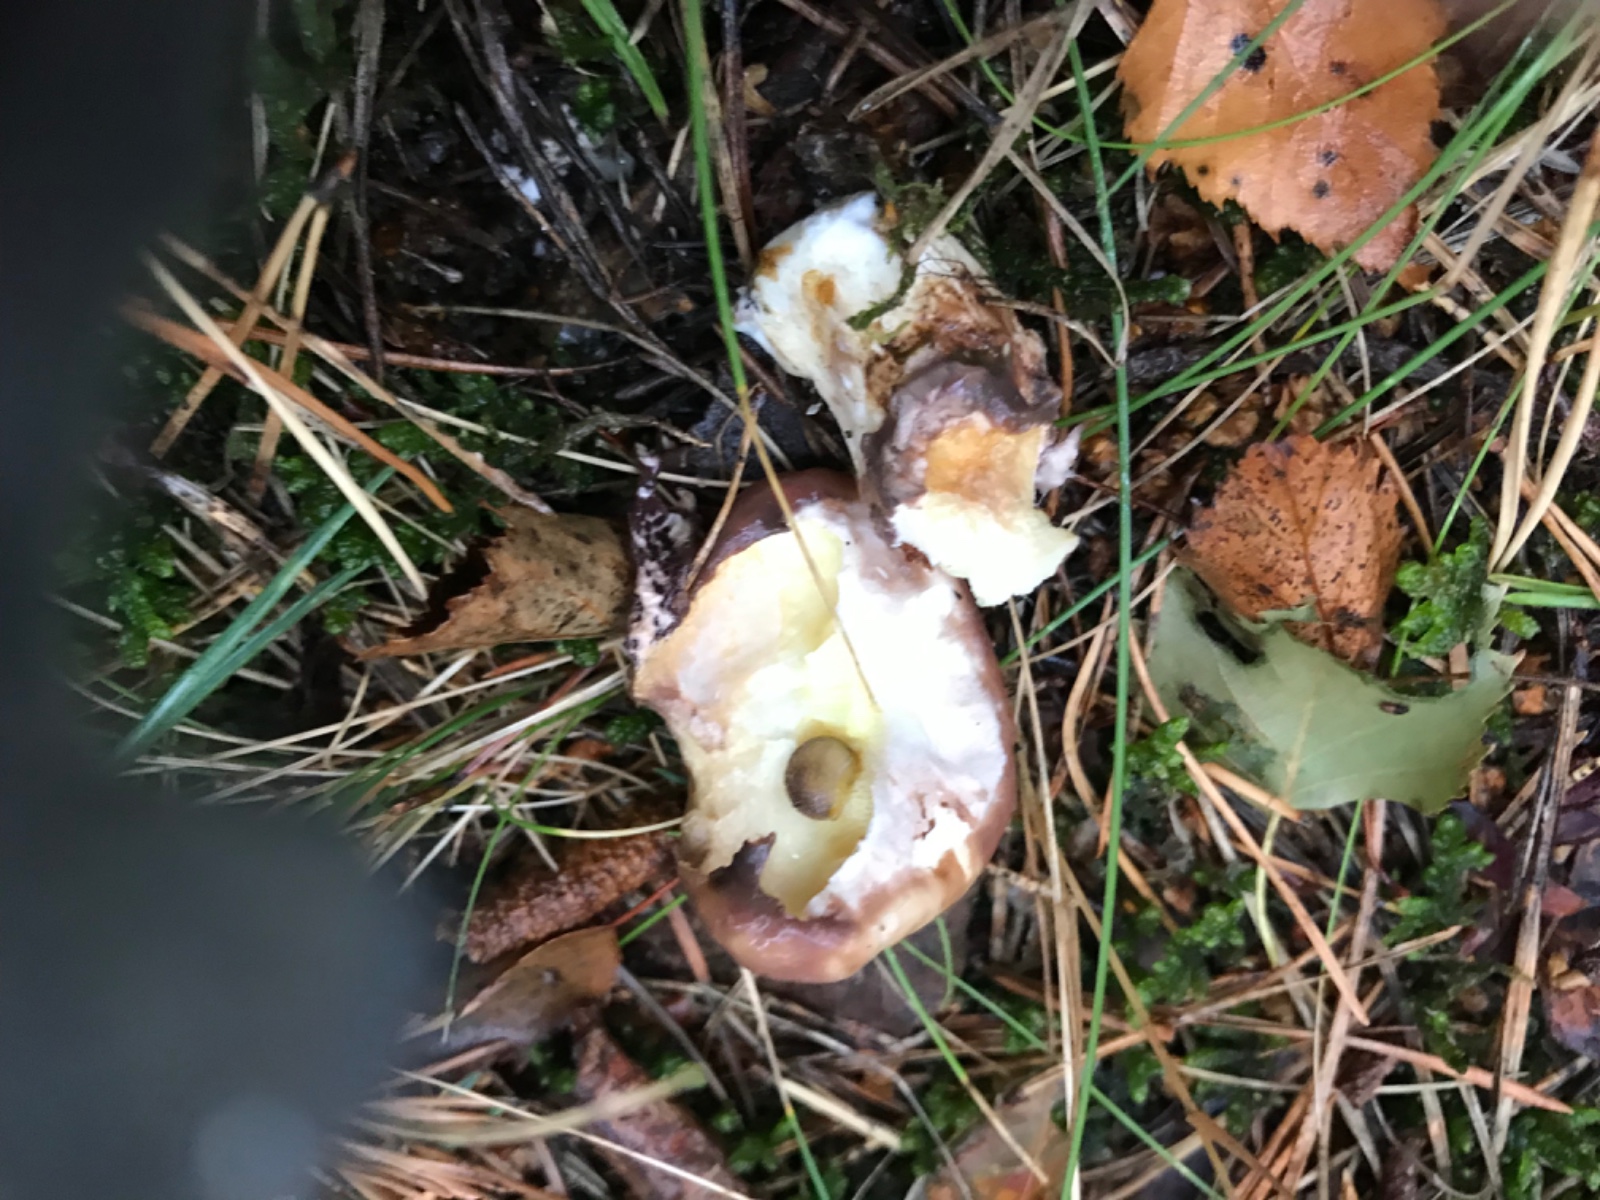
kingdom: Fungi
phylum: Basidiomycota
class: Agaricomycetes
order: Boletales
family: Suillaceae
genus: Suillus
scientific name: Suillus luteus
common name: brungul slimrørhat
